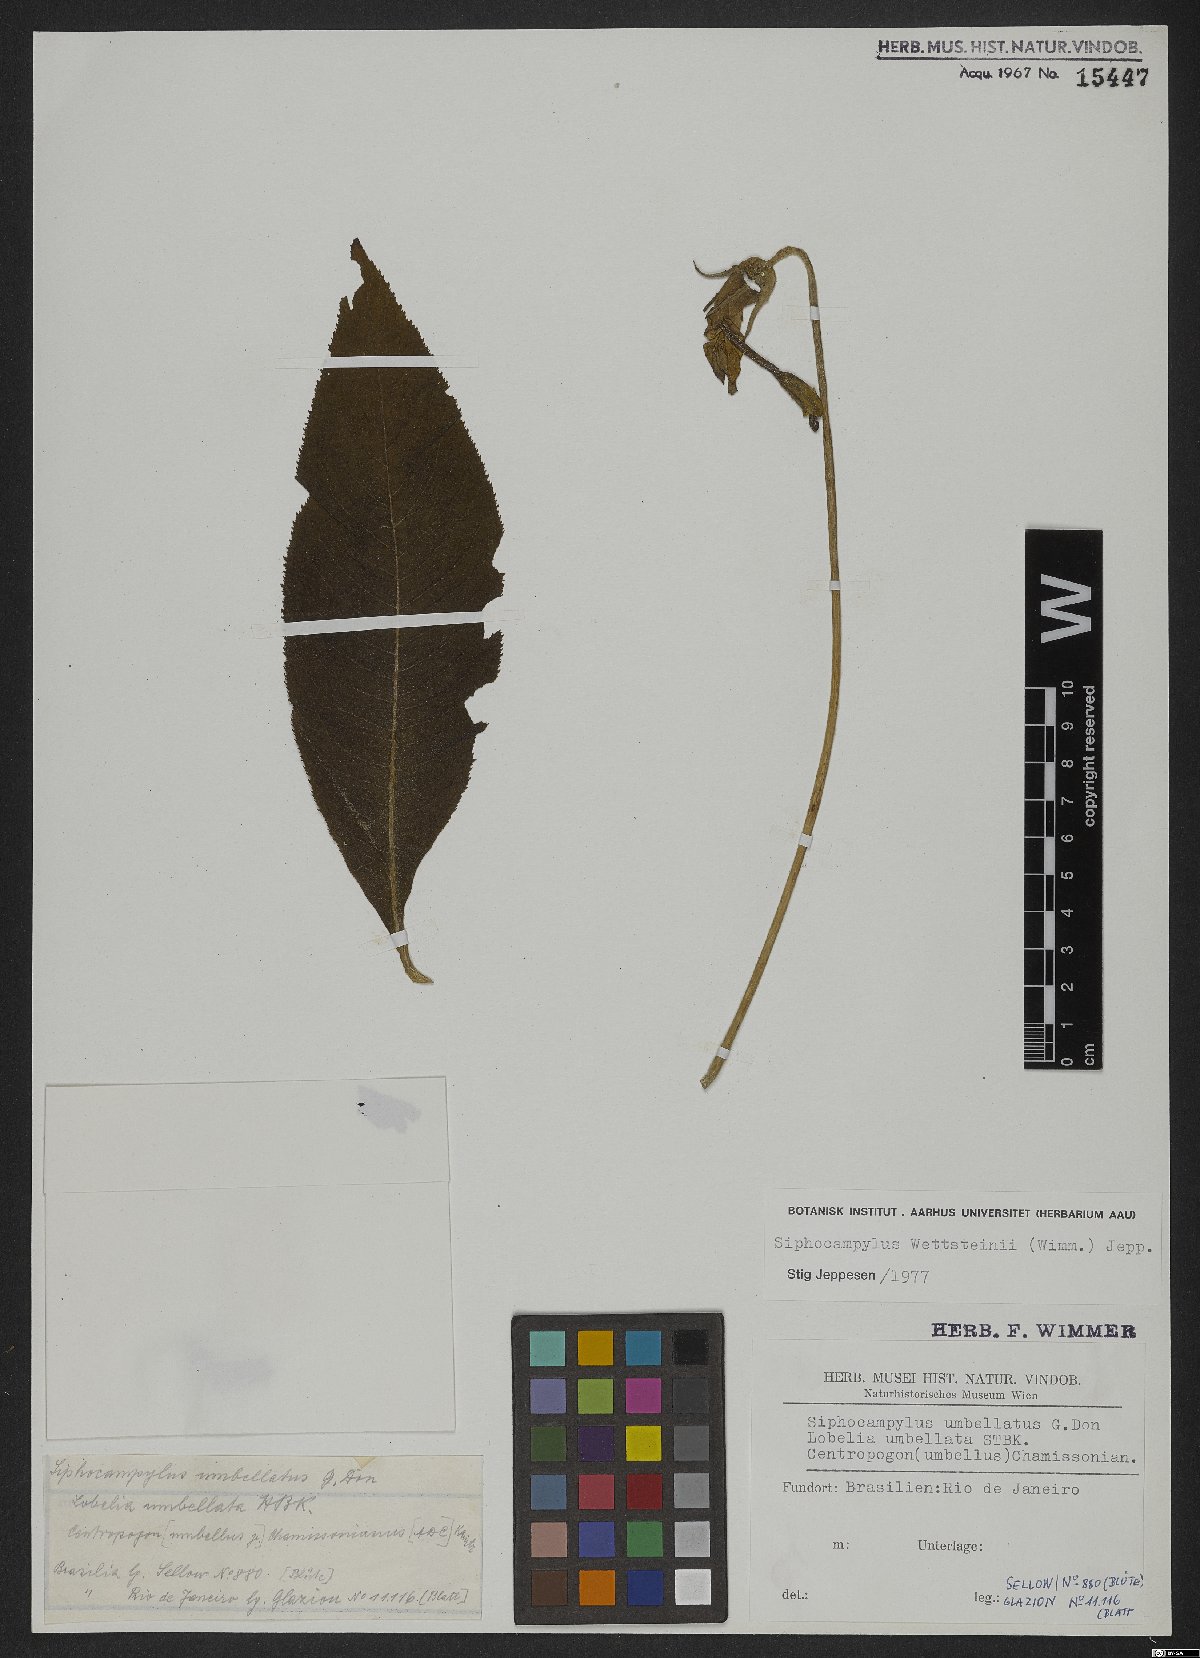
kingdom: Plantae
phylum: Tracheophyta
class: Magnoliopsida
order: Asterales
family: Campanulaceae
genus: Siphocampylus
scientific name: Siphocampylus
